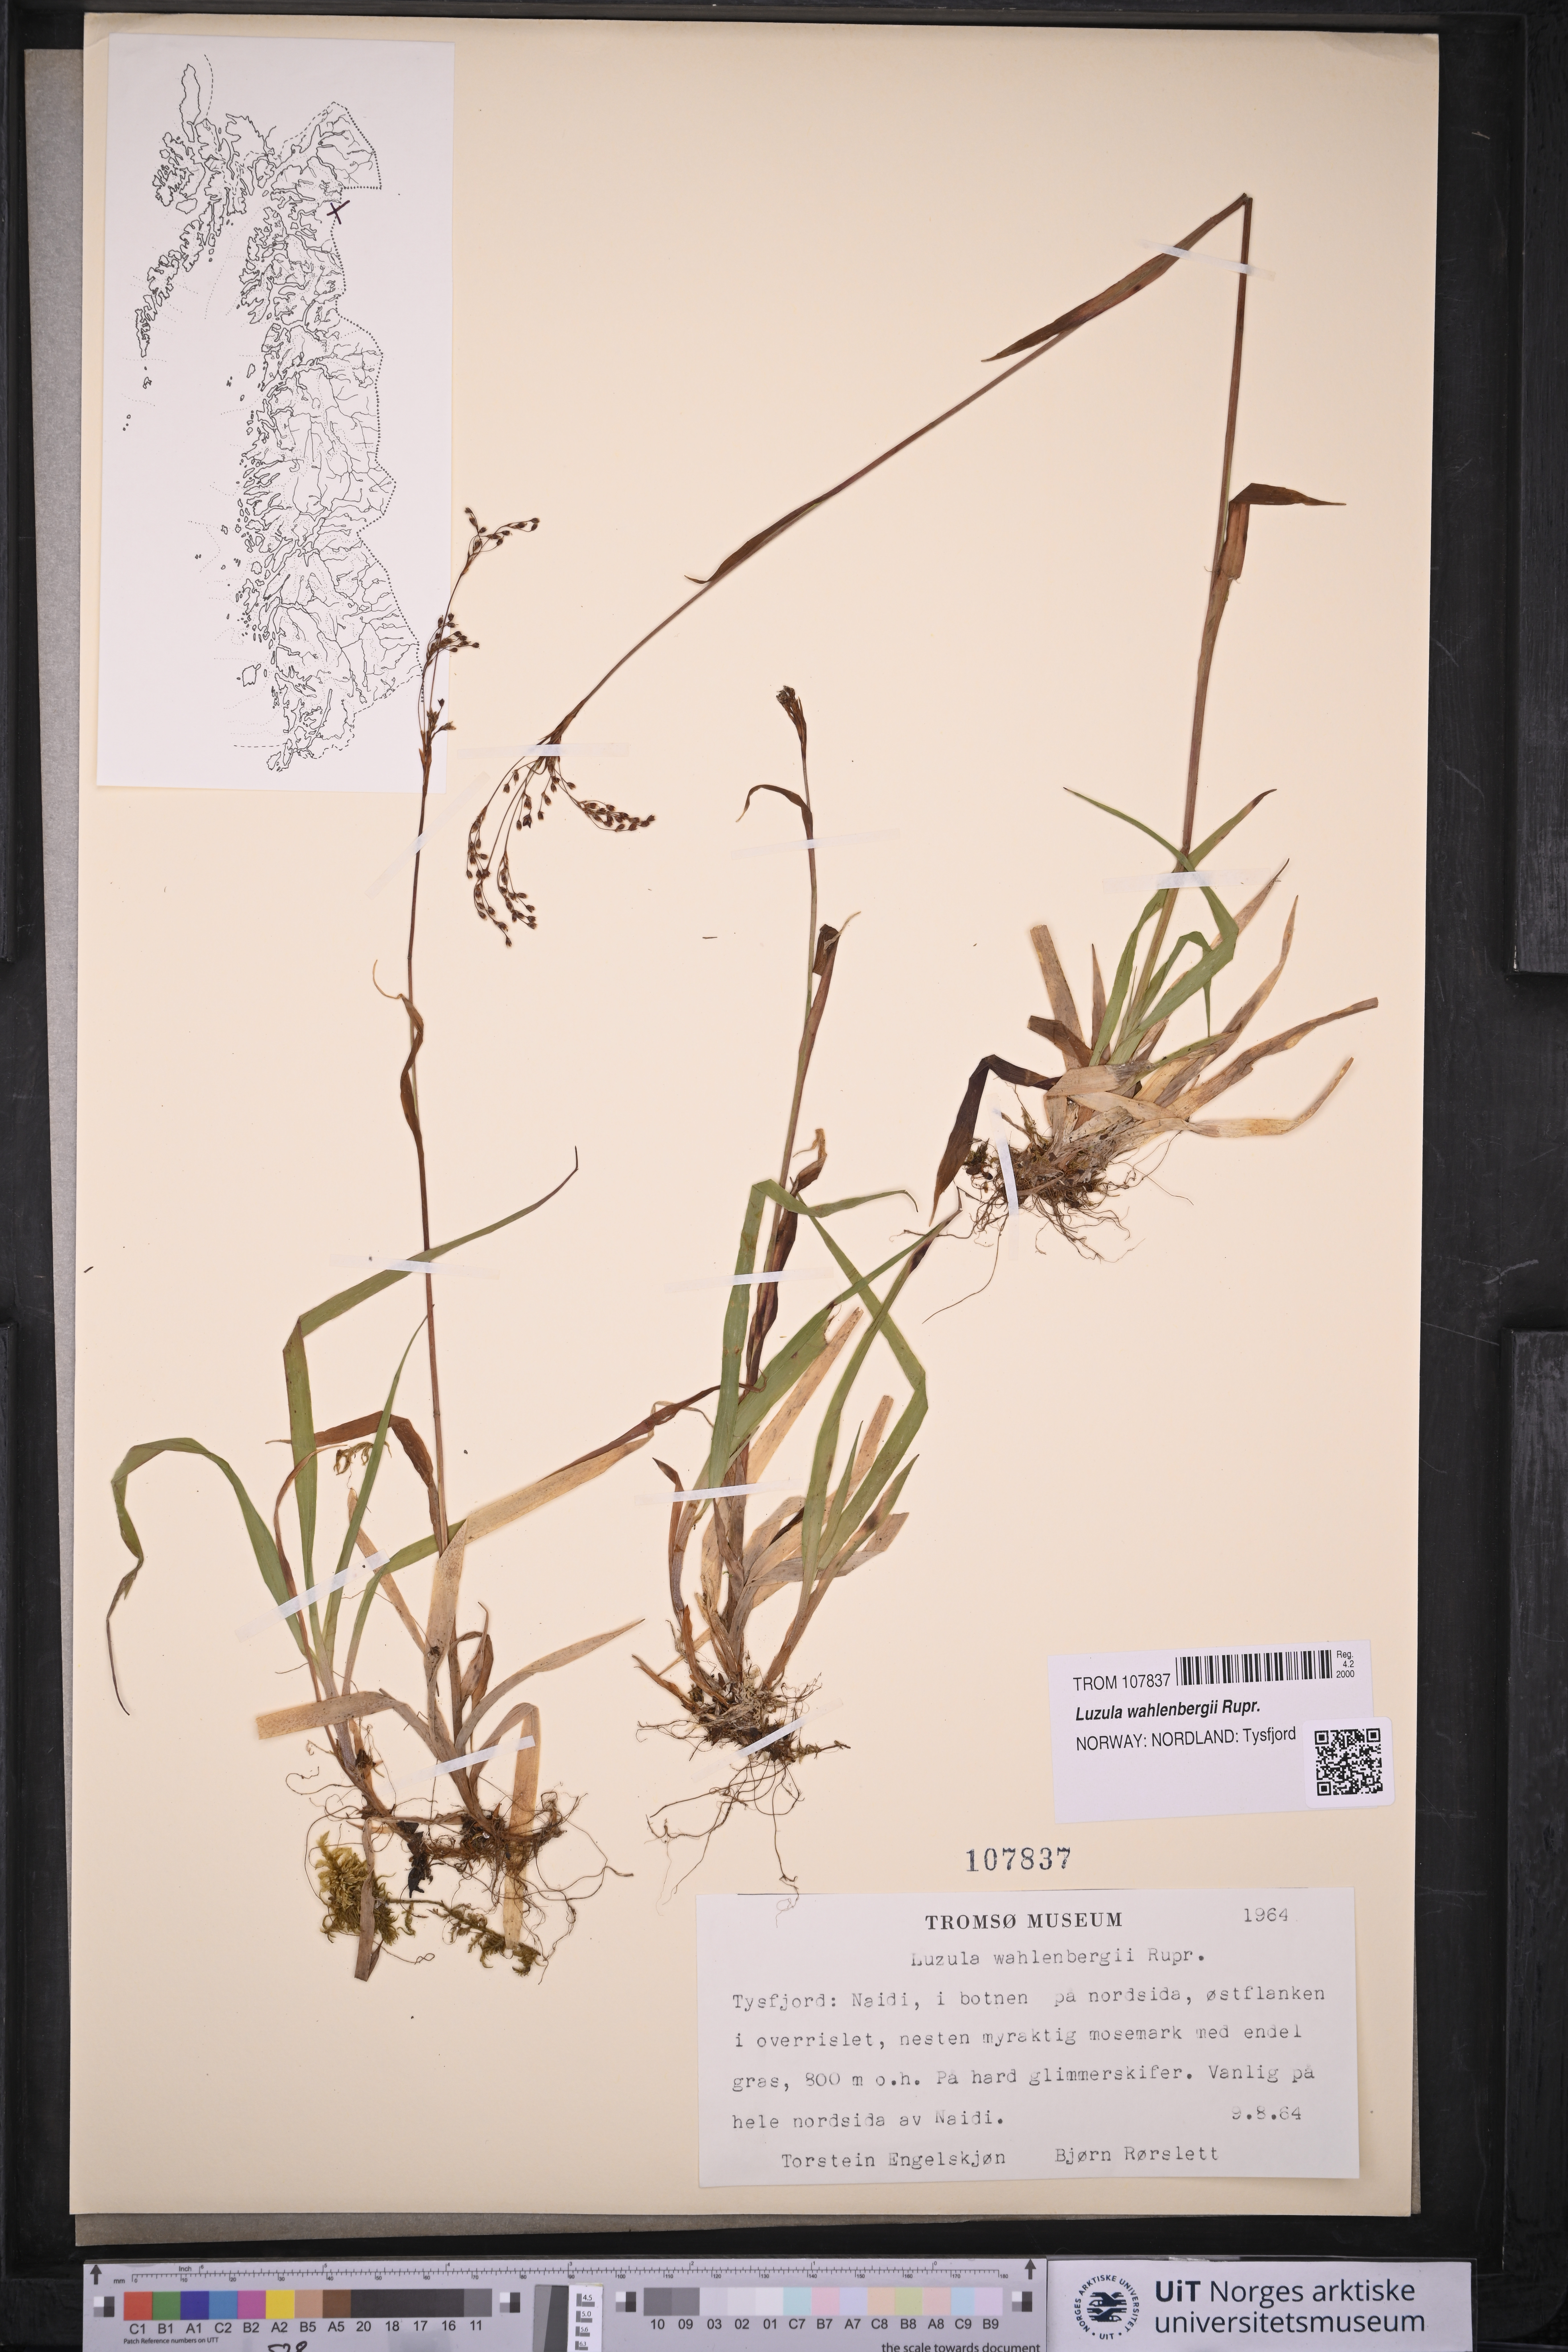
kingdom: Plantae
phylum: Tracheophyta
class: Liliopsida
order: Poales
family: Juncaceae
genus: Luzula
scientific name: Luzula wahlenbergii
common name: Wahlenberg's wood-rush
